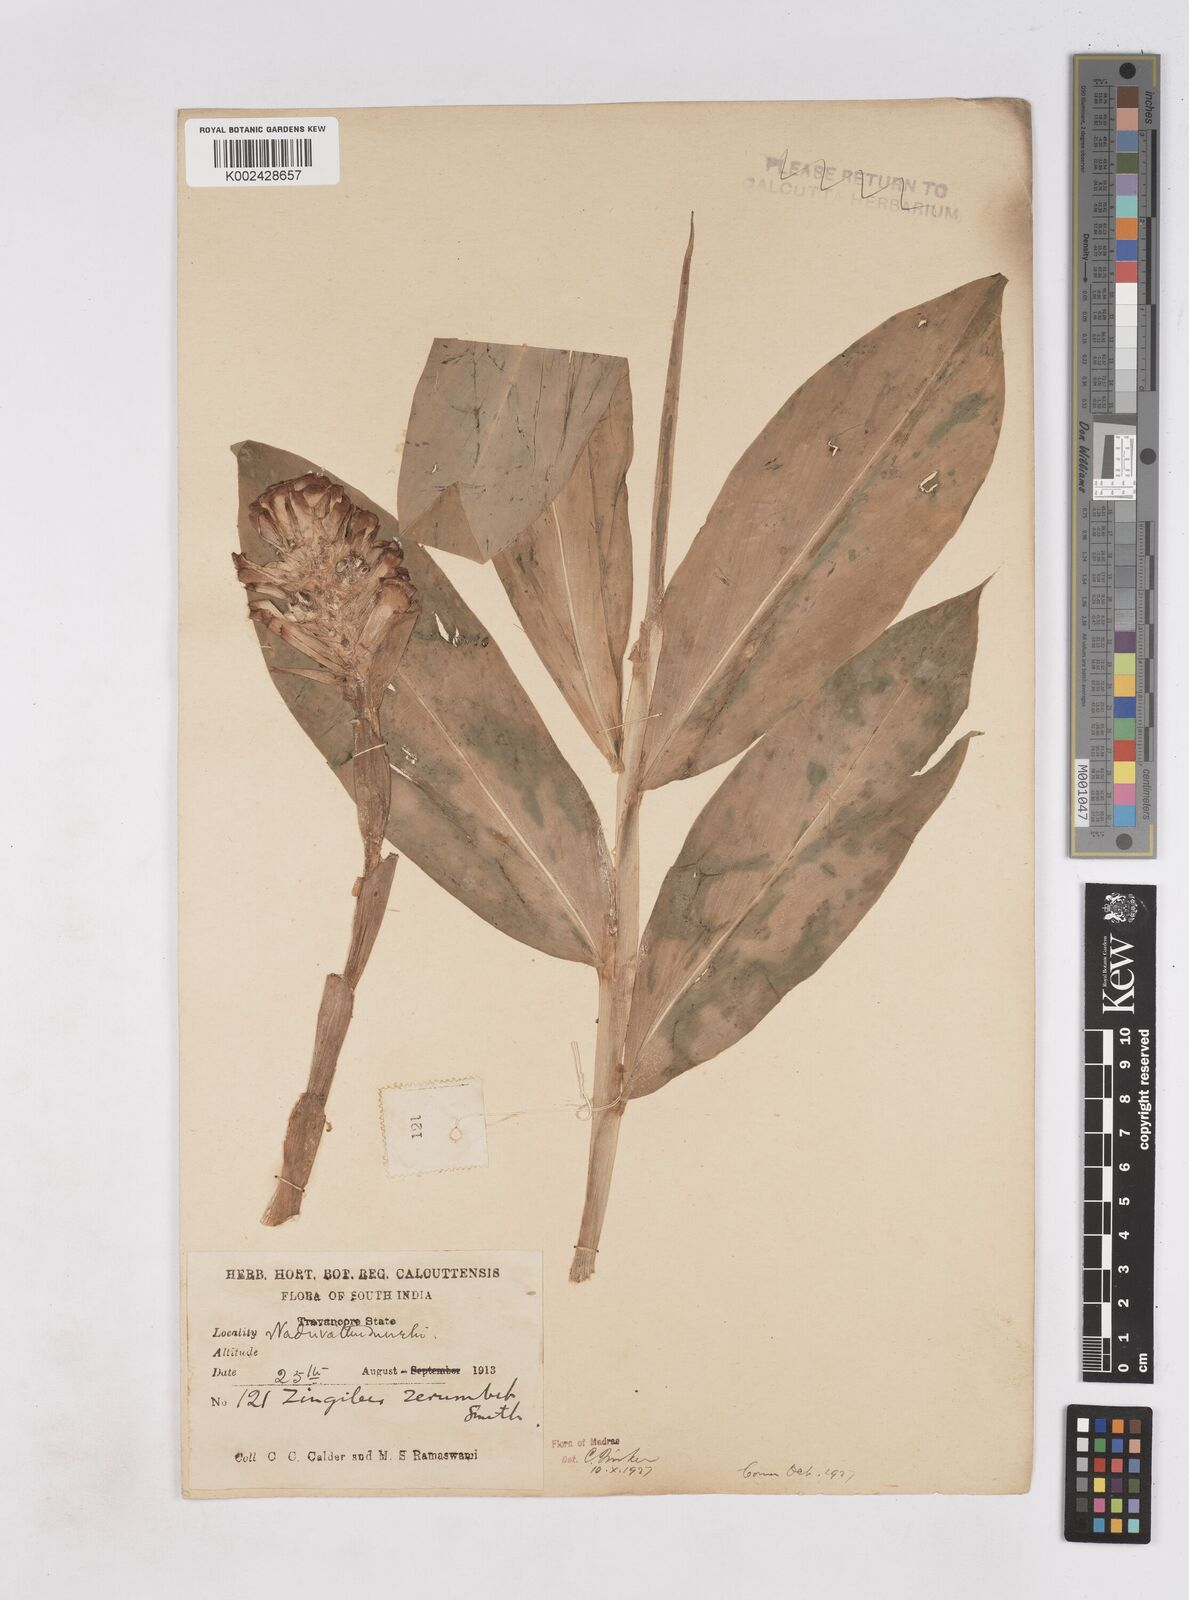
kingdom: Plantae
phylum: Tracheophyta
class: Liliopsida
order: Zingiberales
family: Zingiberaceae
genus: Zingiber
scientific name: Zingiber zerumbet
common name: Bitter ginger
